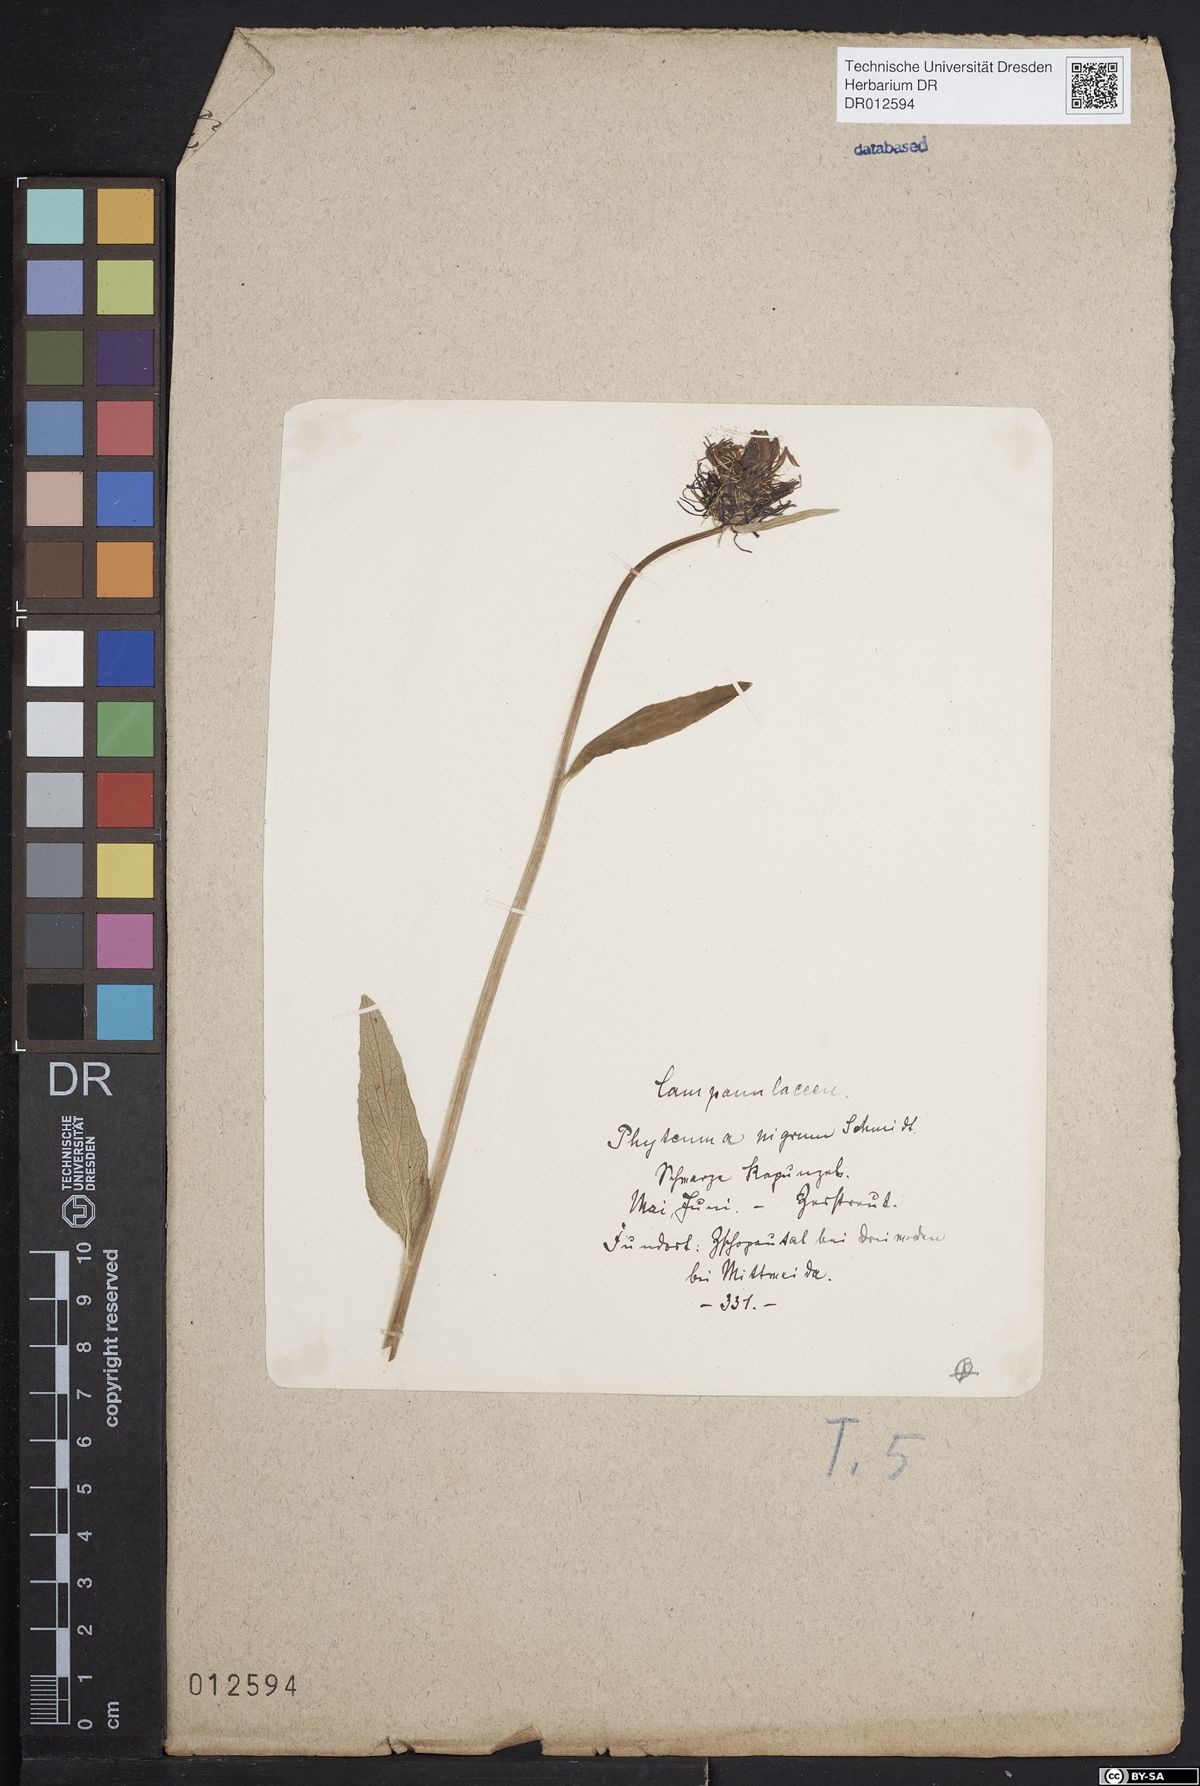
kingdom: Plantae
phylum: Tracheophyta
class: Magnoliopsida
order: Asterales
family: Campanulaceae
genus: Phyteuma
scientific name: Phyteuma nigrum
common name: Black rampion
